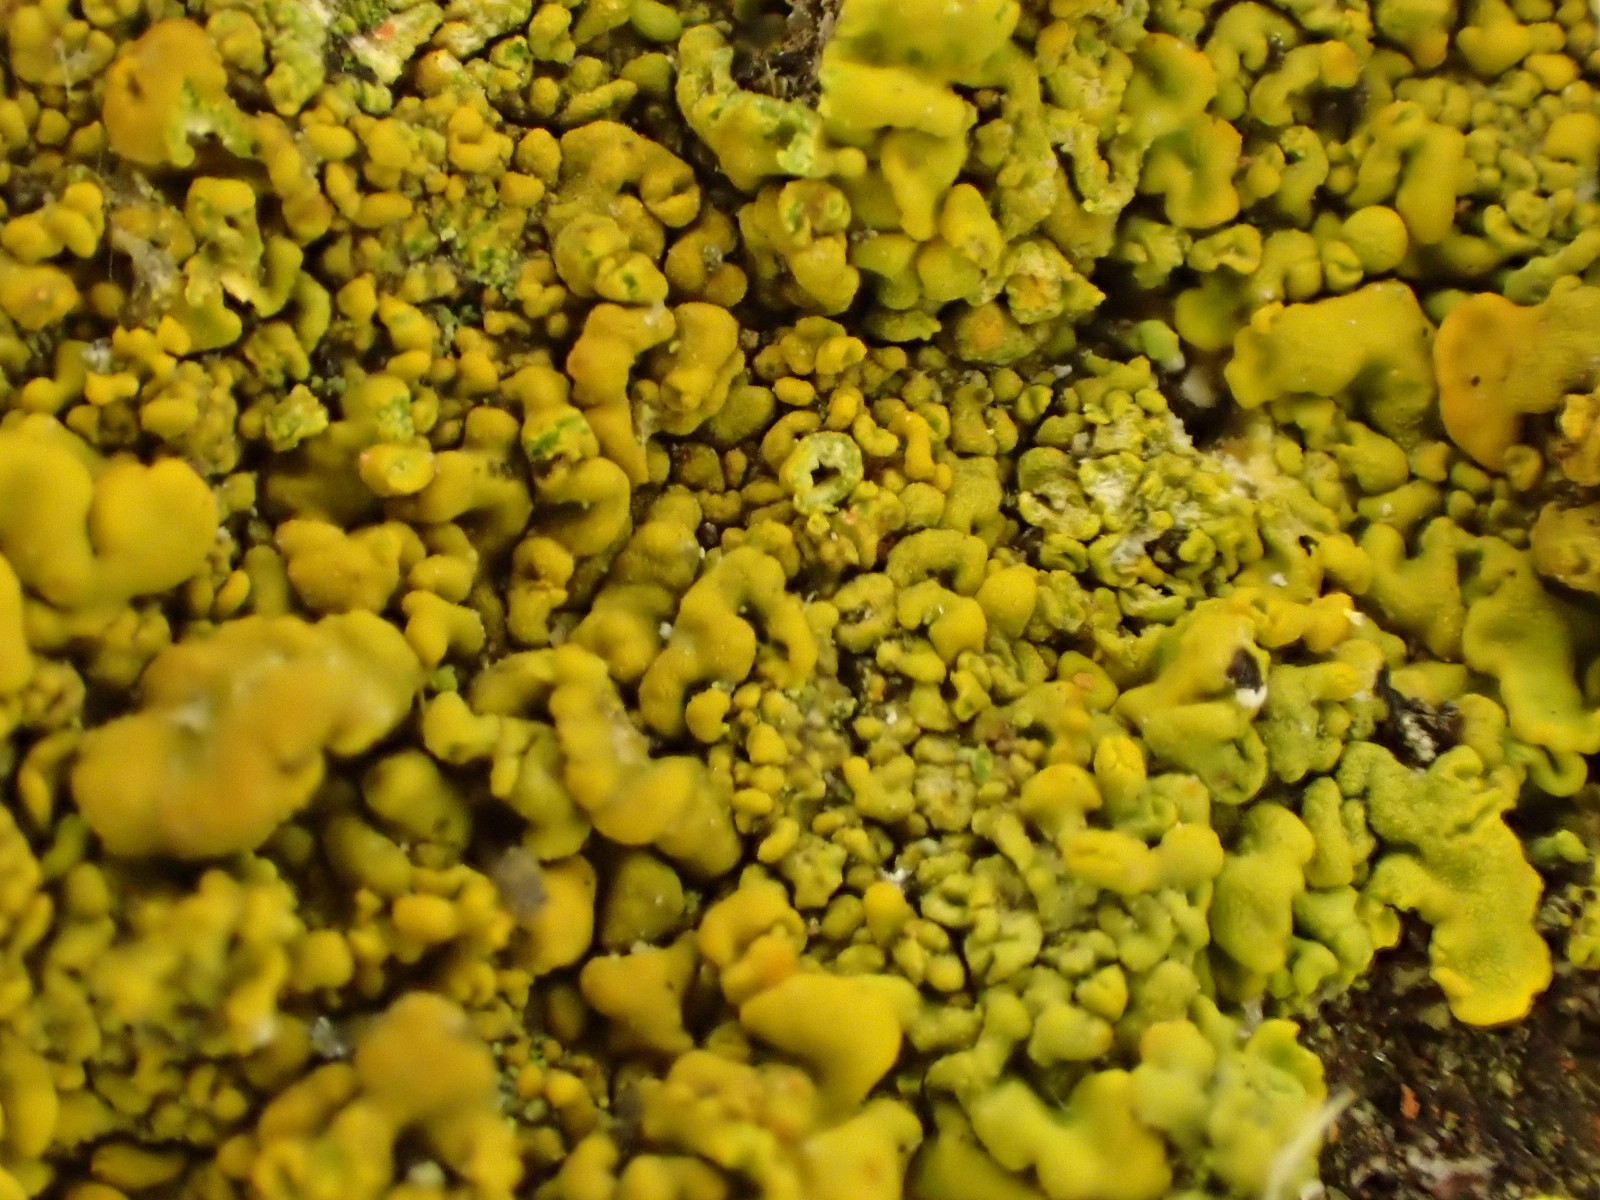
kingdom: Fungi
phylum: Ascomycota
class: Lecanoromycetes
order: Teloschistales
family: Teloschistaceae
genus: Xanthoria
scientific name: Xanthoria calcicola
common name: vortet væggelav
